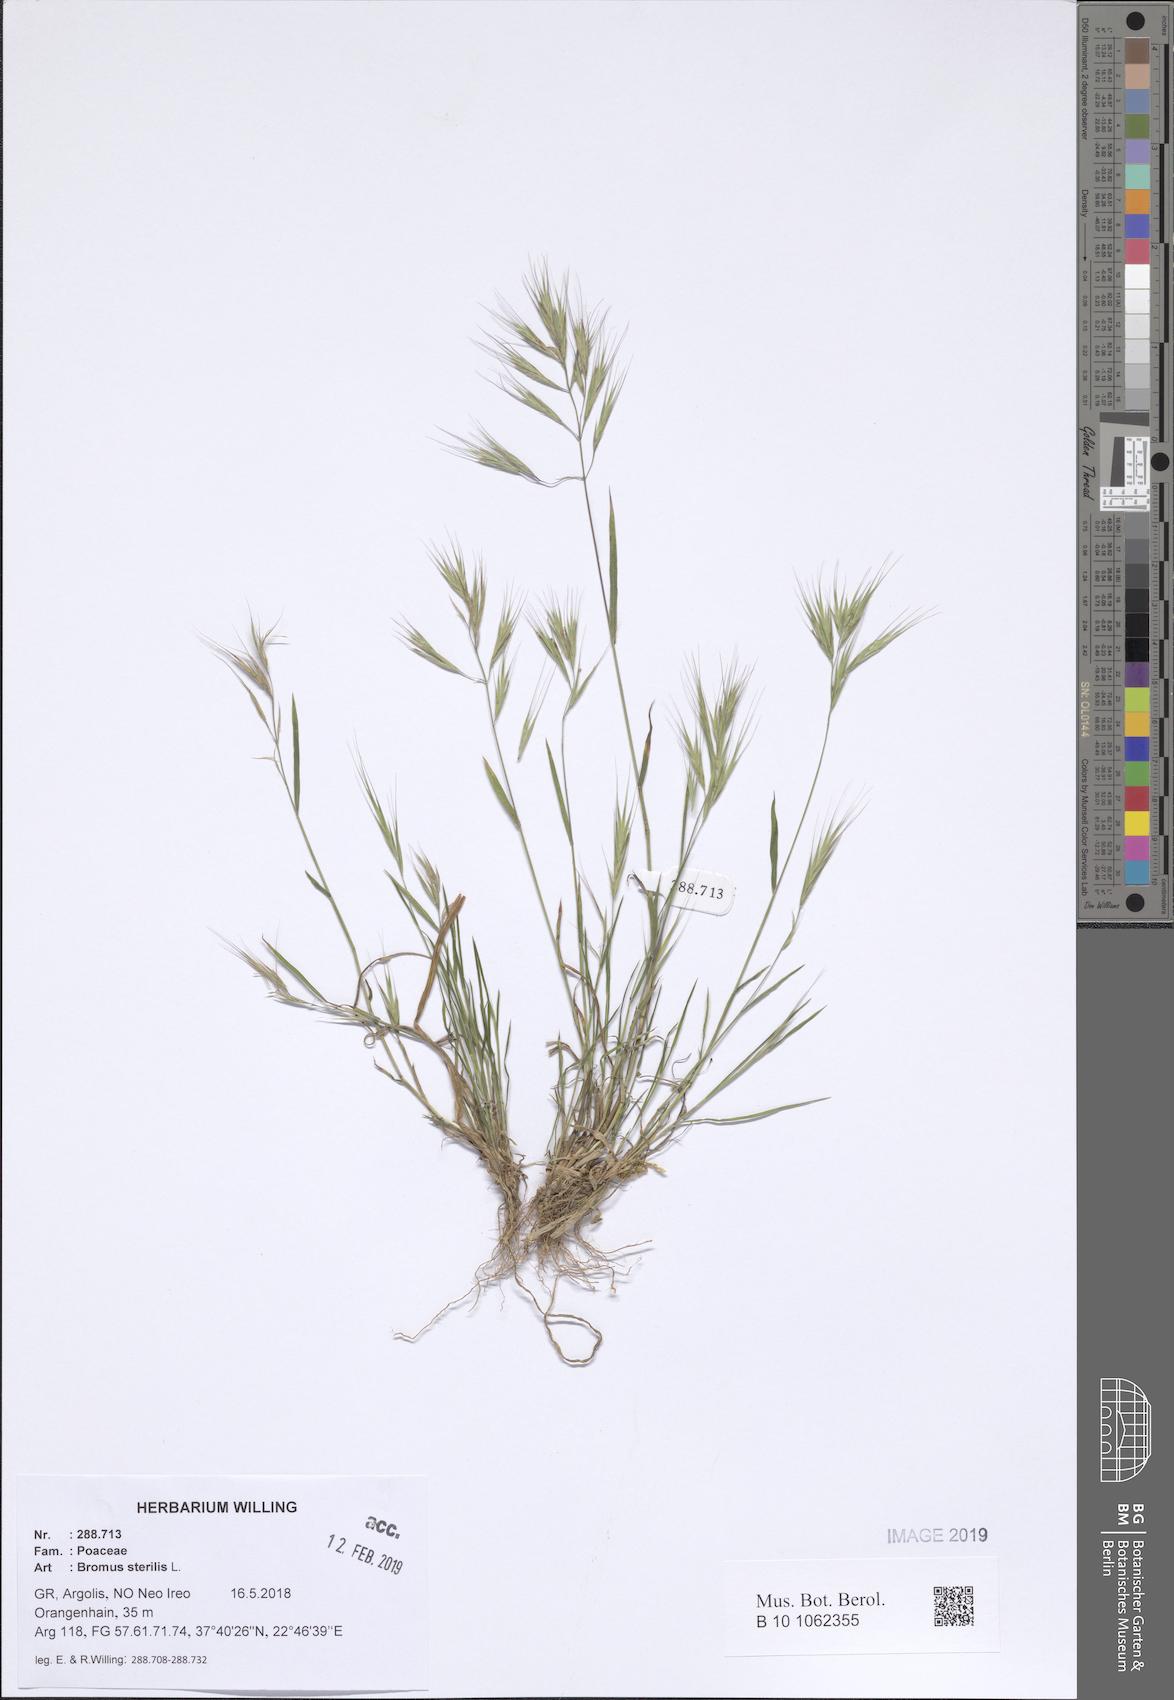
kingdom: Plantae
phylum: Tracheophyta
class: Liliopsida
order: Poales
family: Poaceae
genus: Bromus
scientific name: Bromus sterilis
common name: Poverty brome
